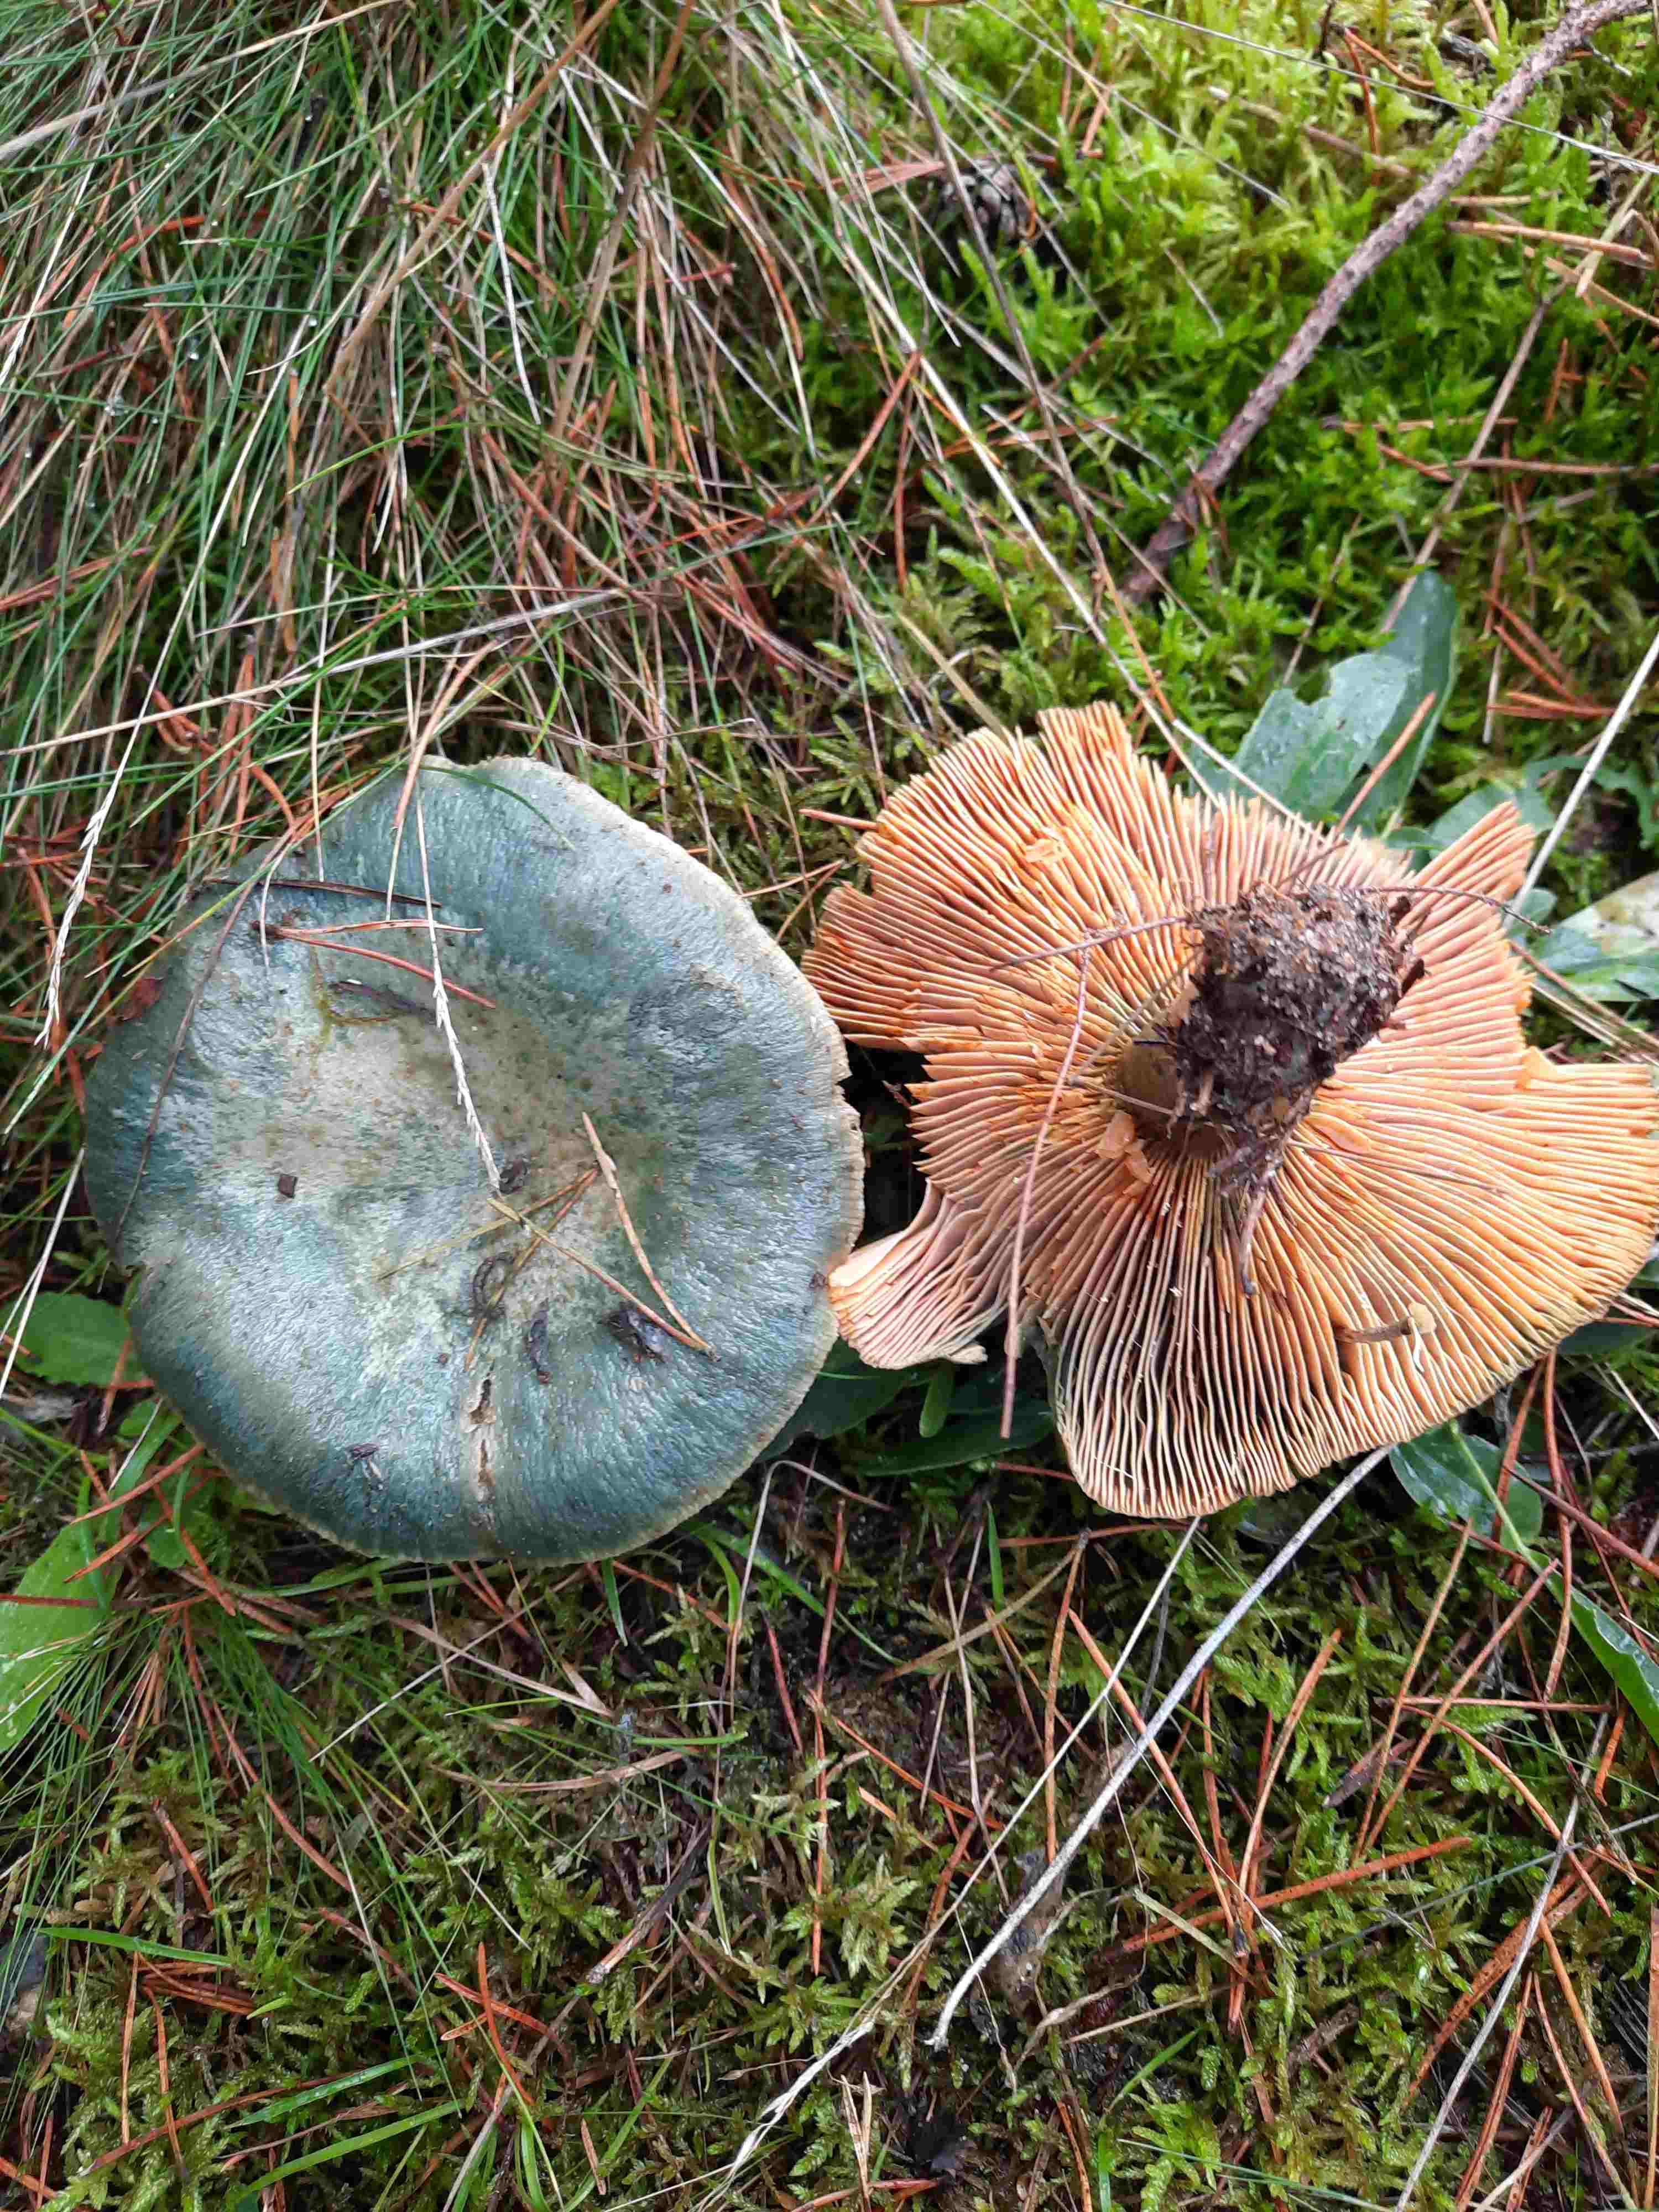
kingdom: Fungi
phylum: Basidiomycota
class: Agaricomycetes
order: Russulales
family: Russulaceae
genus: Lactarius
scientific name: Lactarius deterrimus
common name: gran-mælkehat
